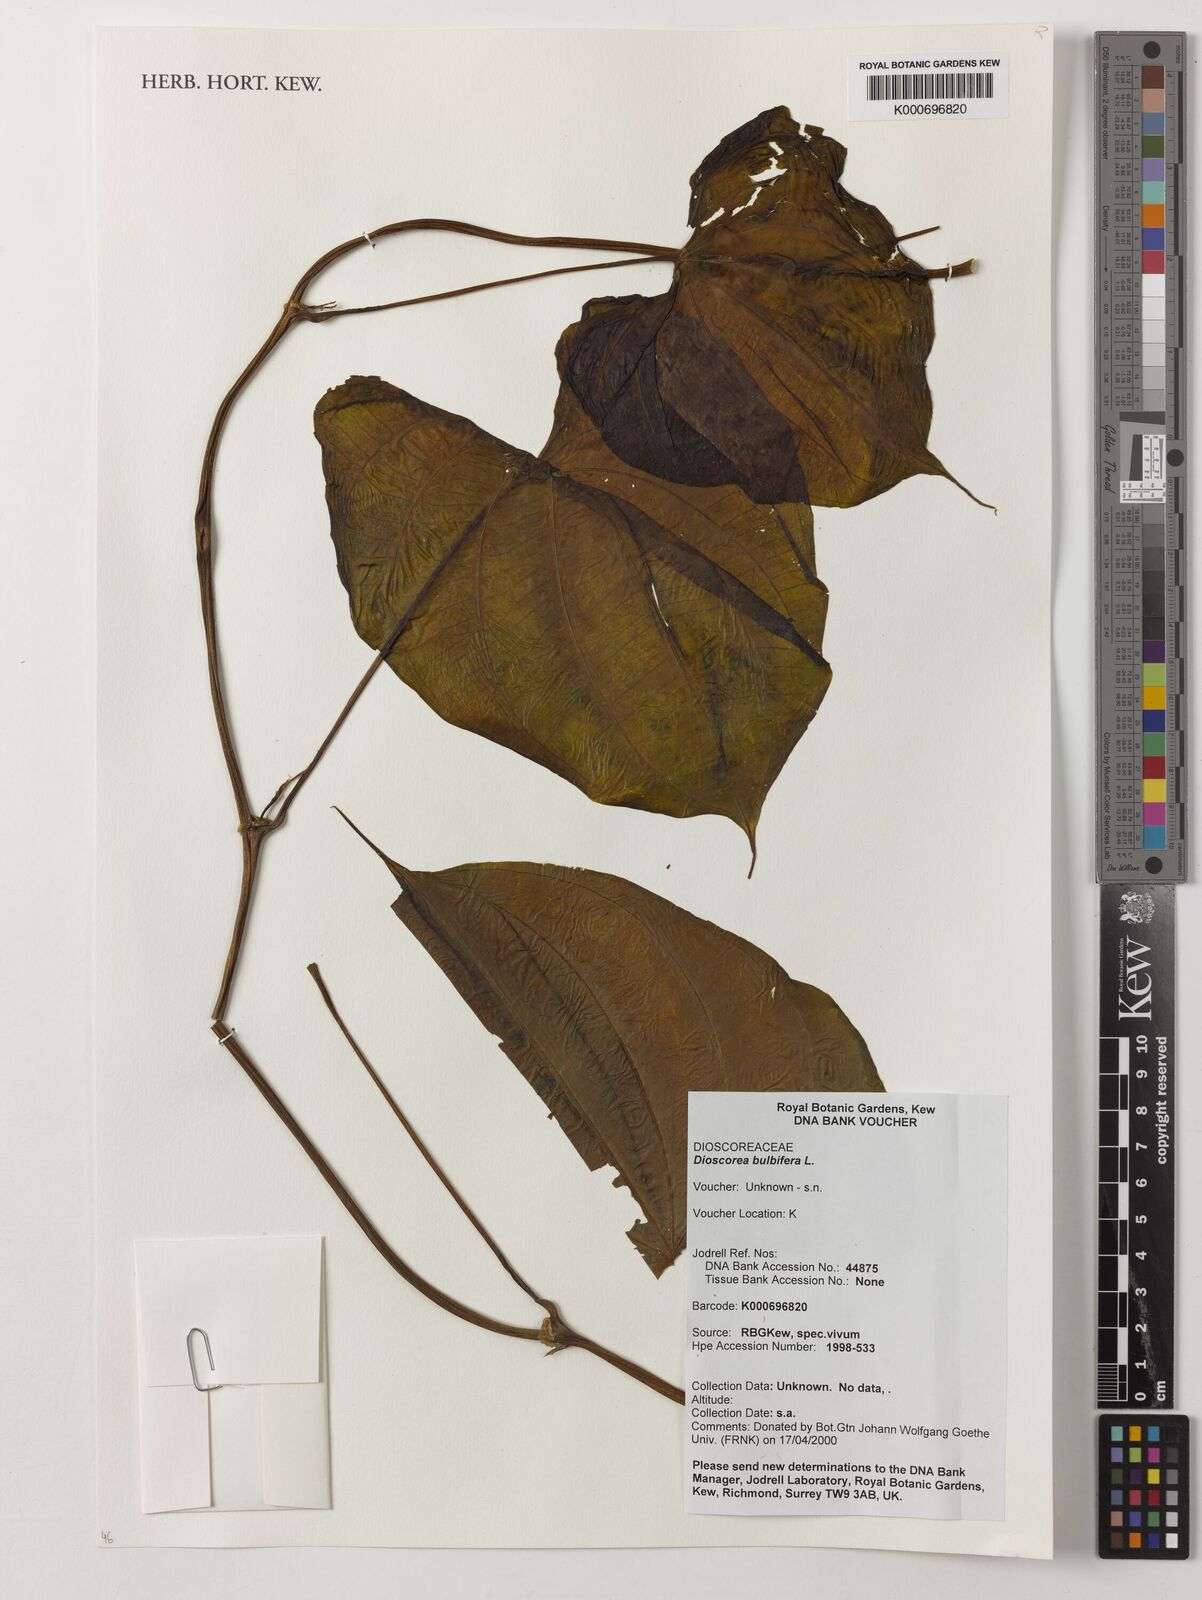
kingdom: Plantae
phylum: Tracheophyta
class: Liliopsida
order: Dioscoreales
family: Dioscoreaceae
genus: Dioscorea
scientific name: Dioscorea bulbifera
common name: Air yam
